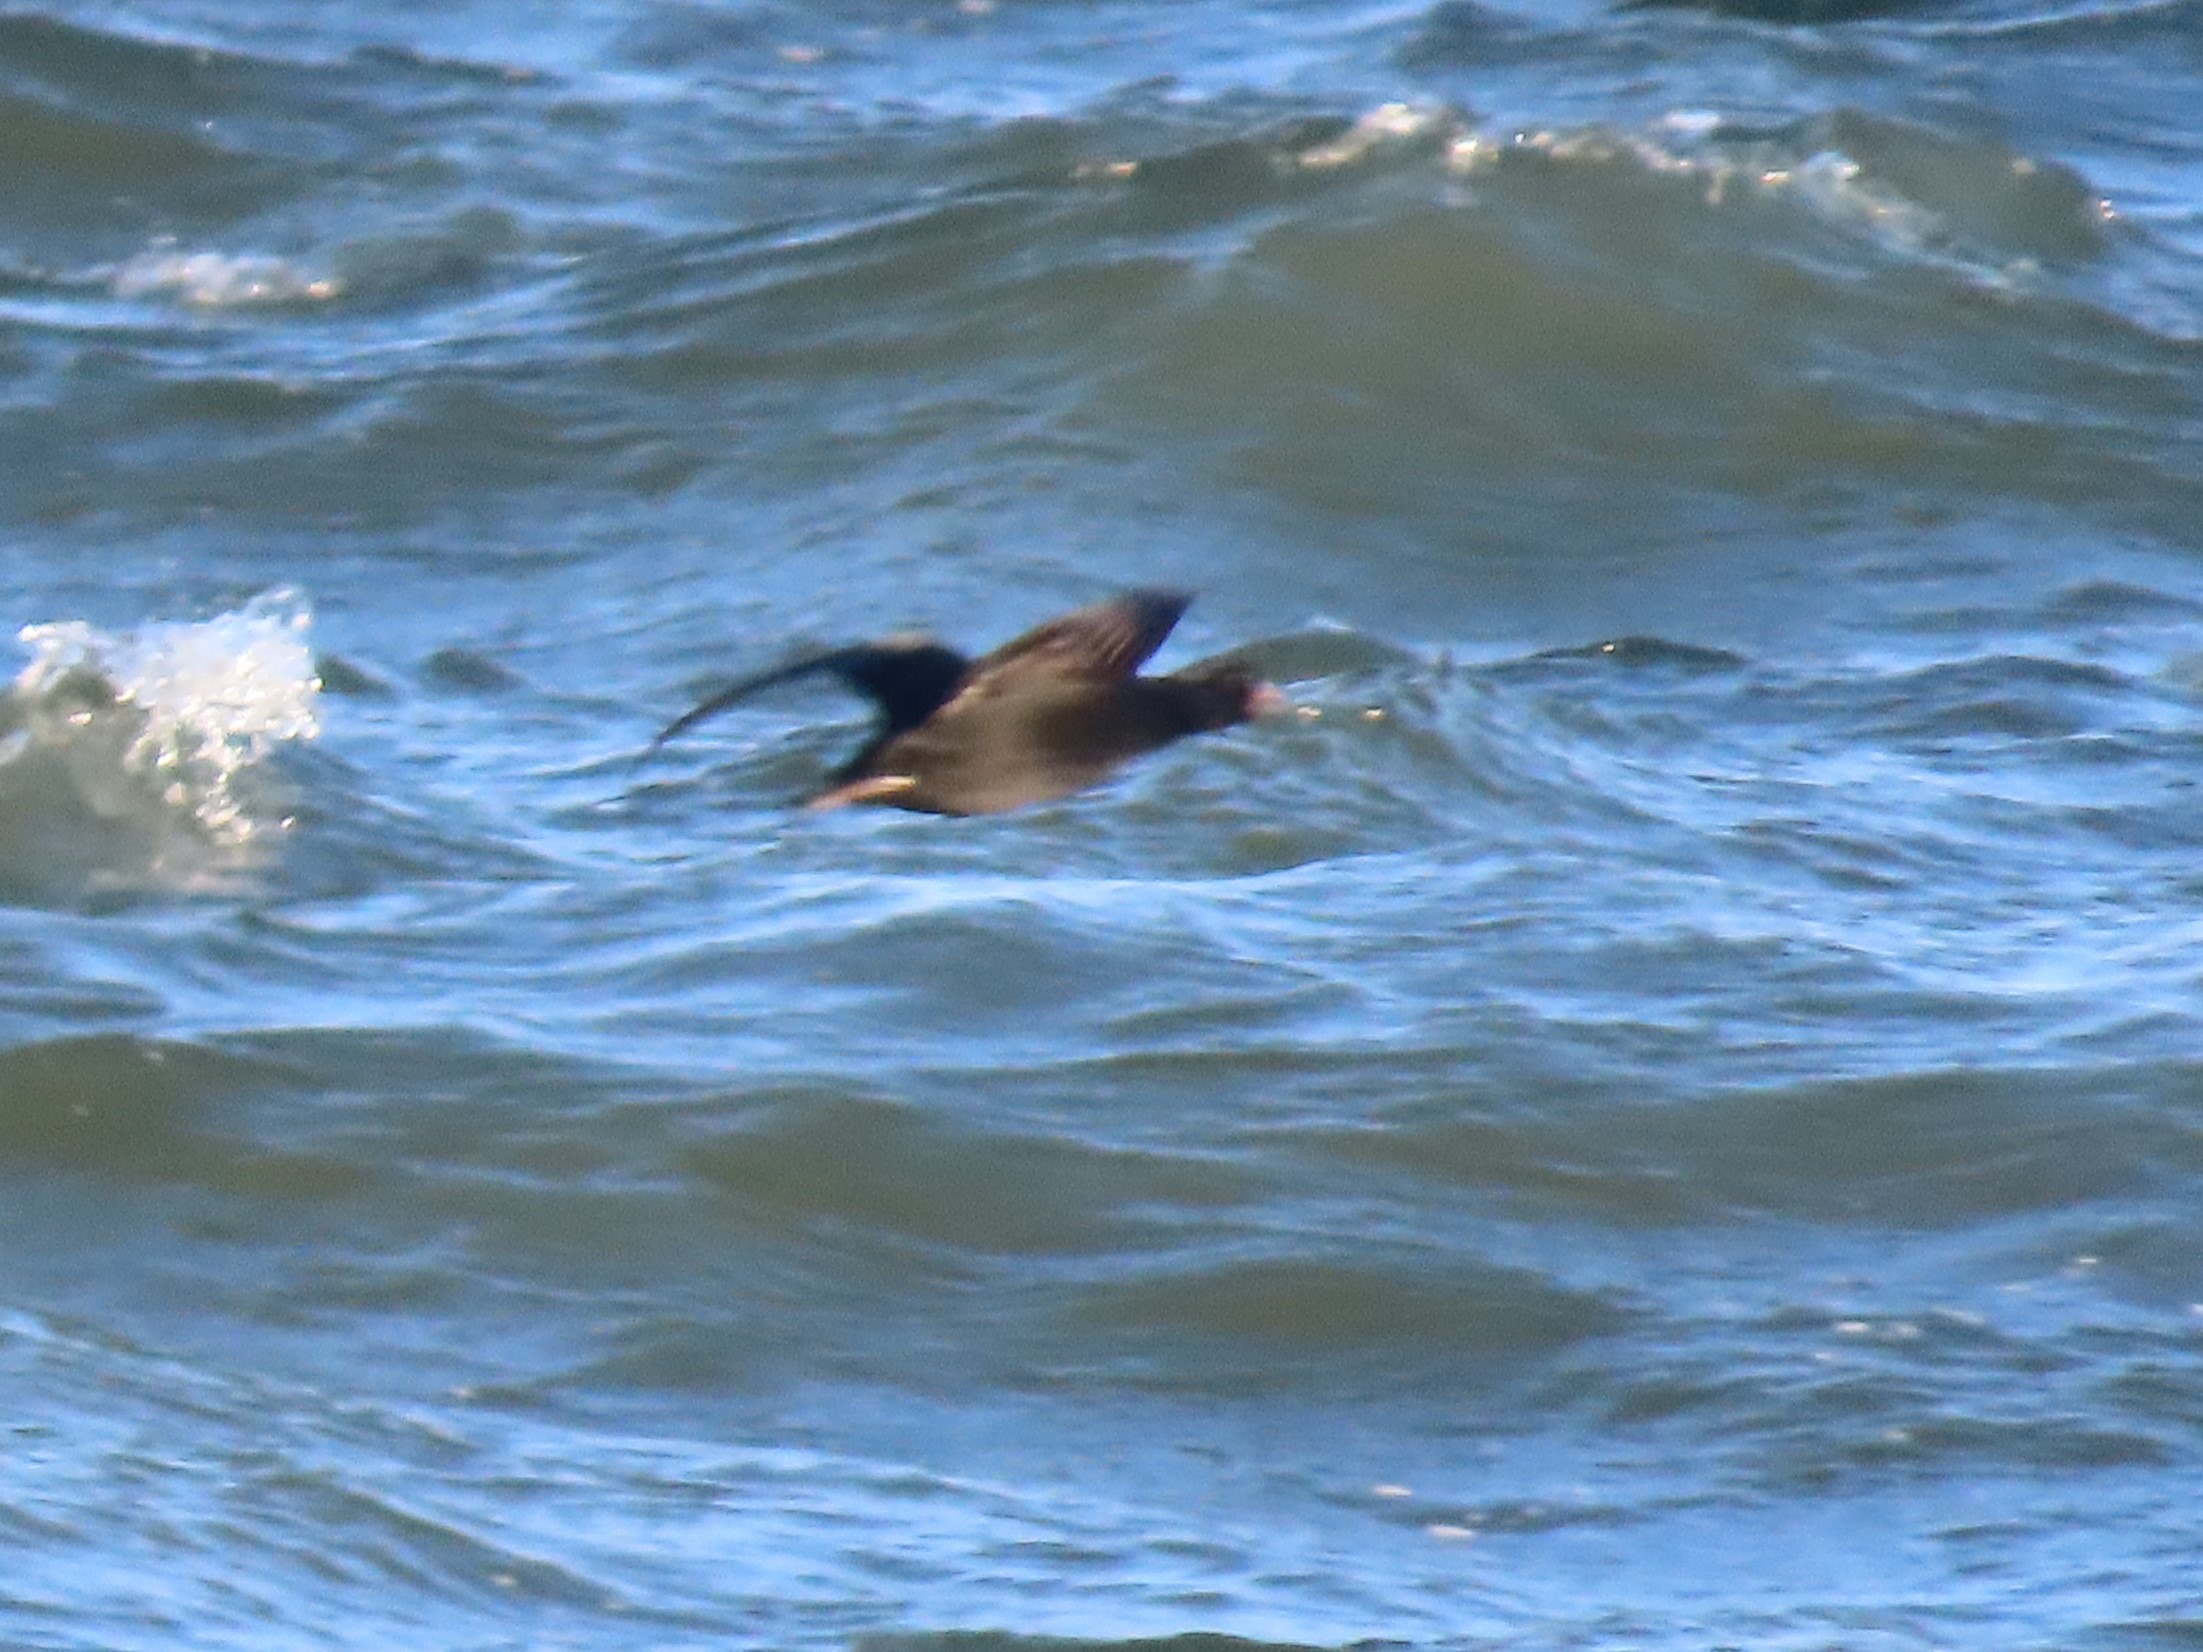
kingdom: Animalia
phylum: Chordata
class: Aves
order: Anseriformes
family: Anatidae
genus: Melanitta
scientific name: Melanitta nigra
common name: Sortand
